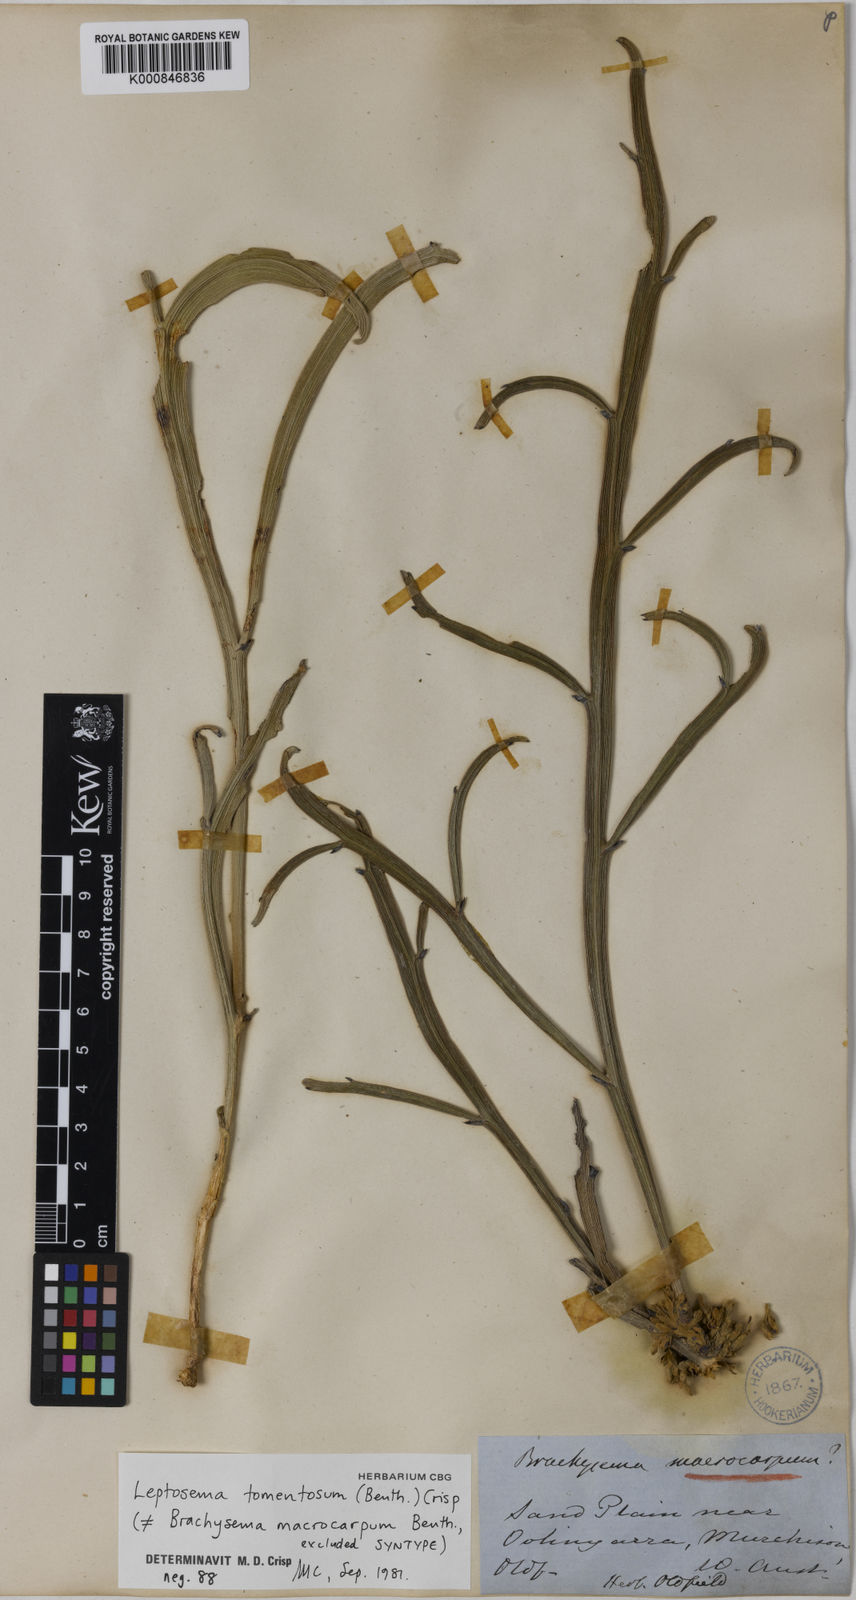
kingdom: Plantae
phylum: Tracheophyta
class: Magnoliopsida
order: Fabales
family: Fabaceae
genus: Leptosema
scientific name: Leptosema tomentosum
